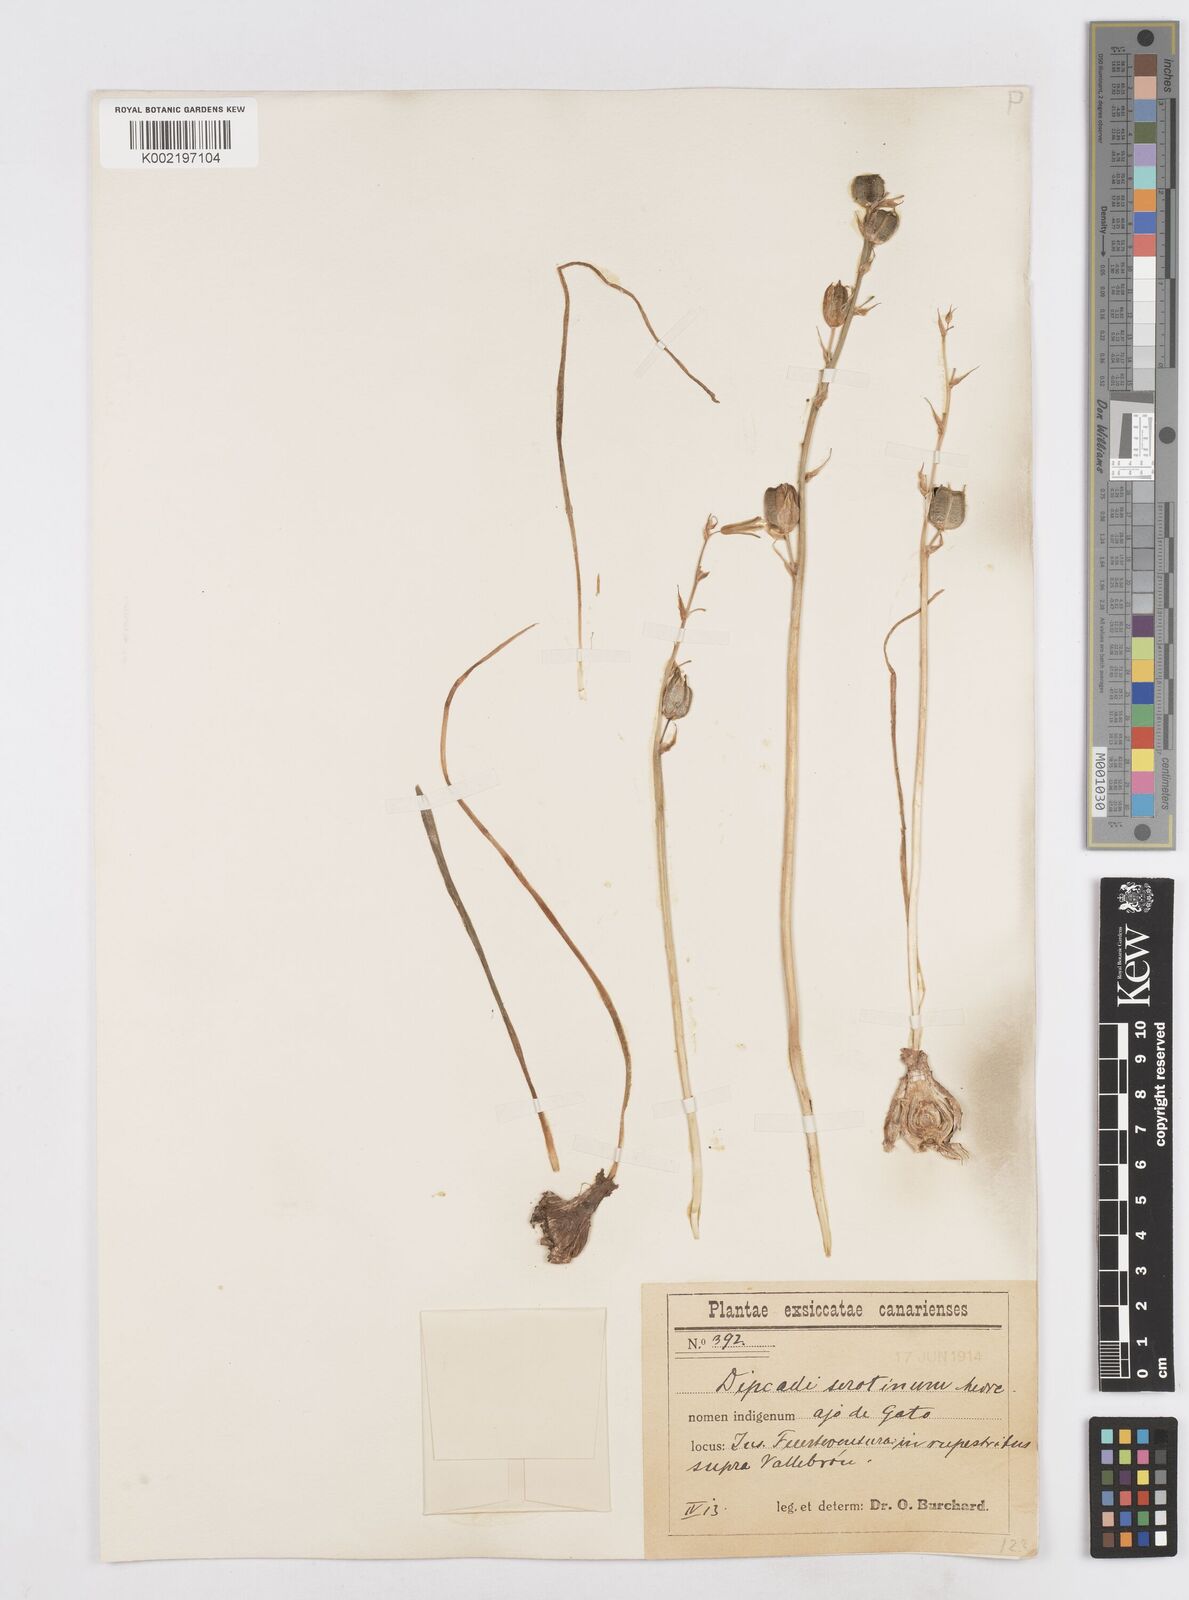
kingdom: Plantae
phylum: Tracheophyta
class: Liliopsida
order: Asparagales
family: Asparagaceae
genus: Dipcadi
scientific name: Dipcadi serotinum
